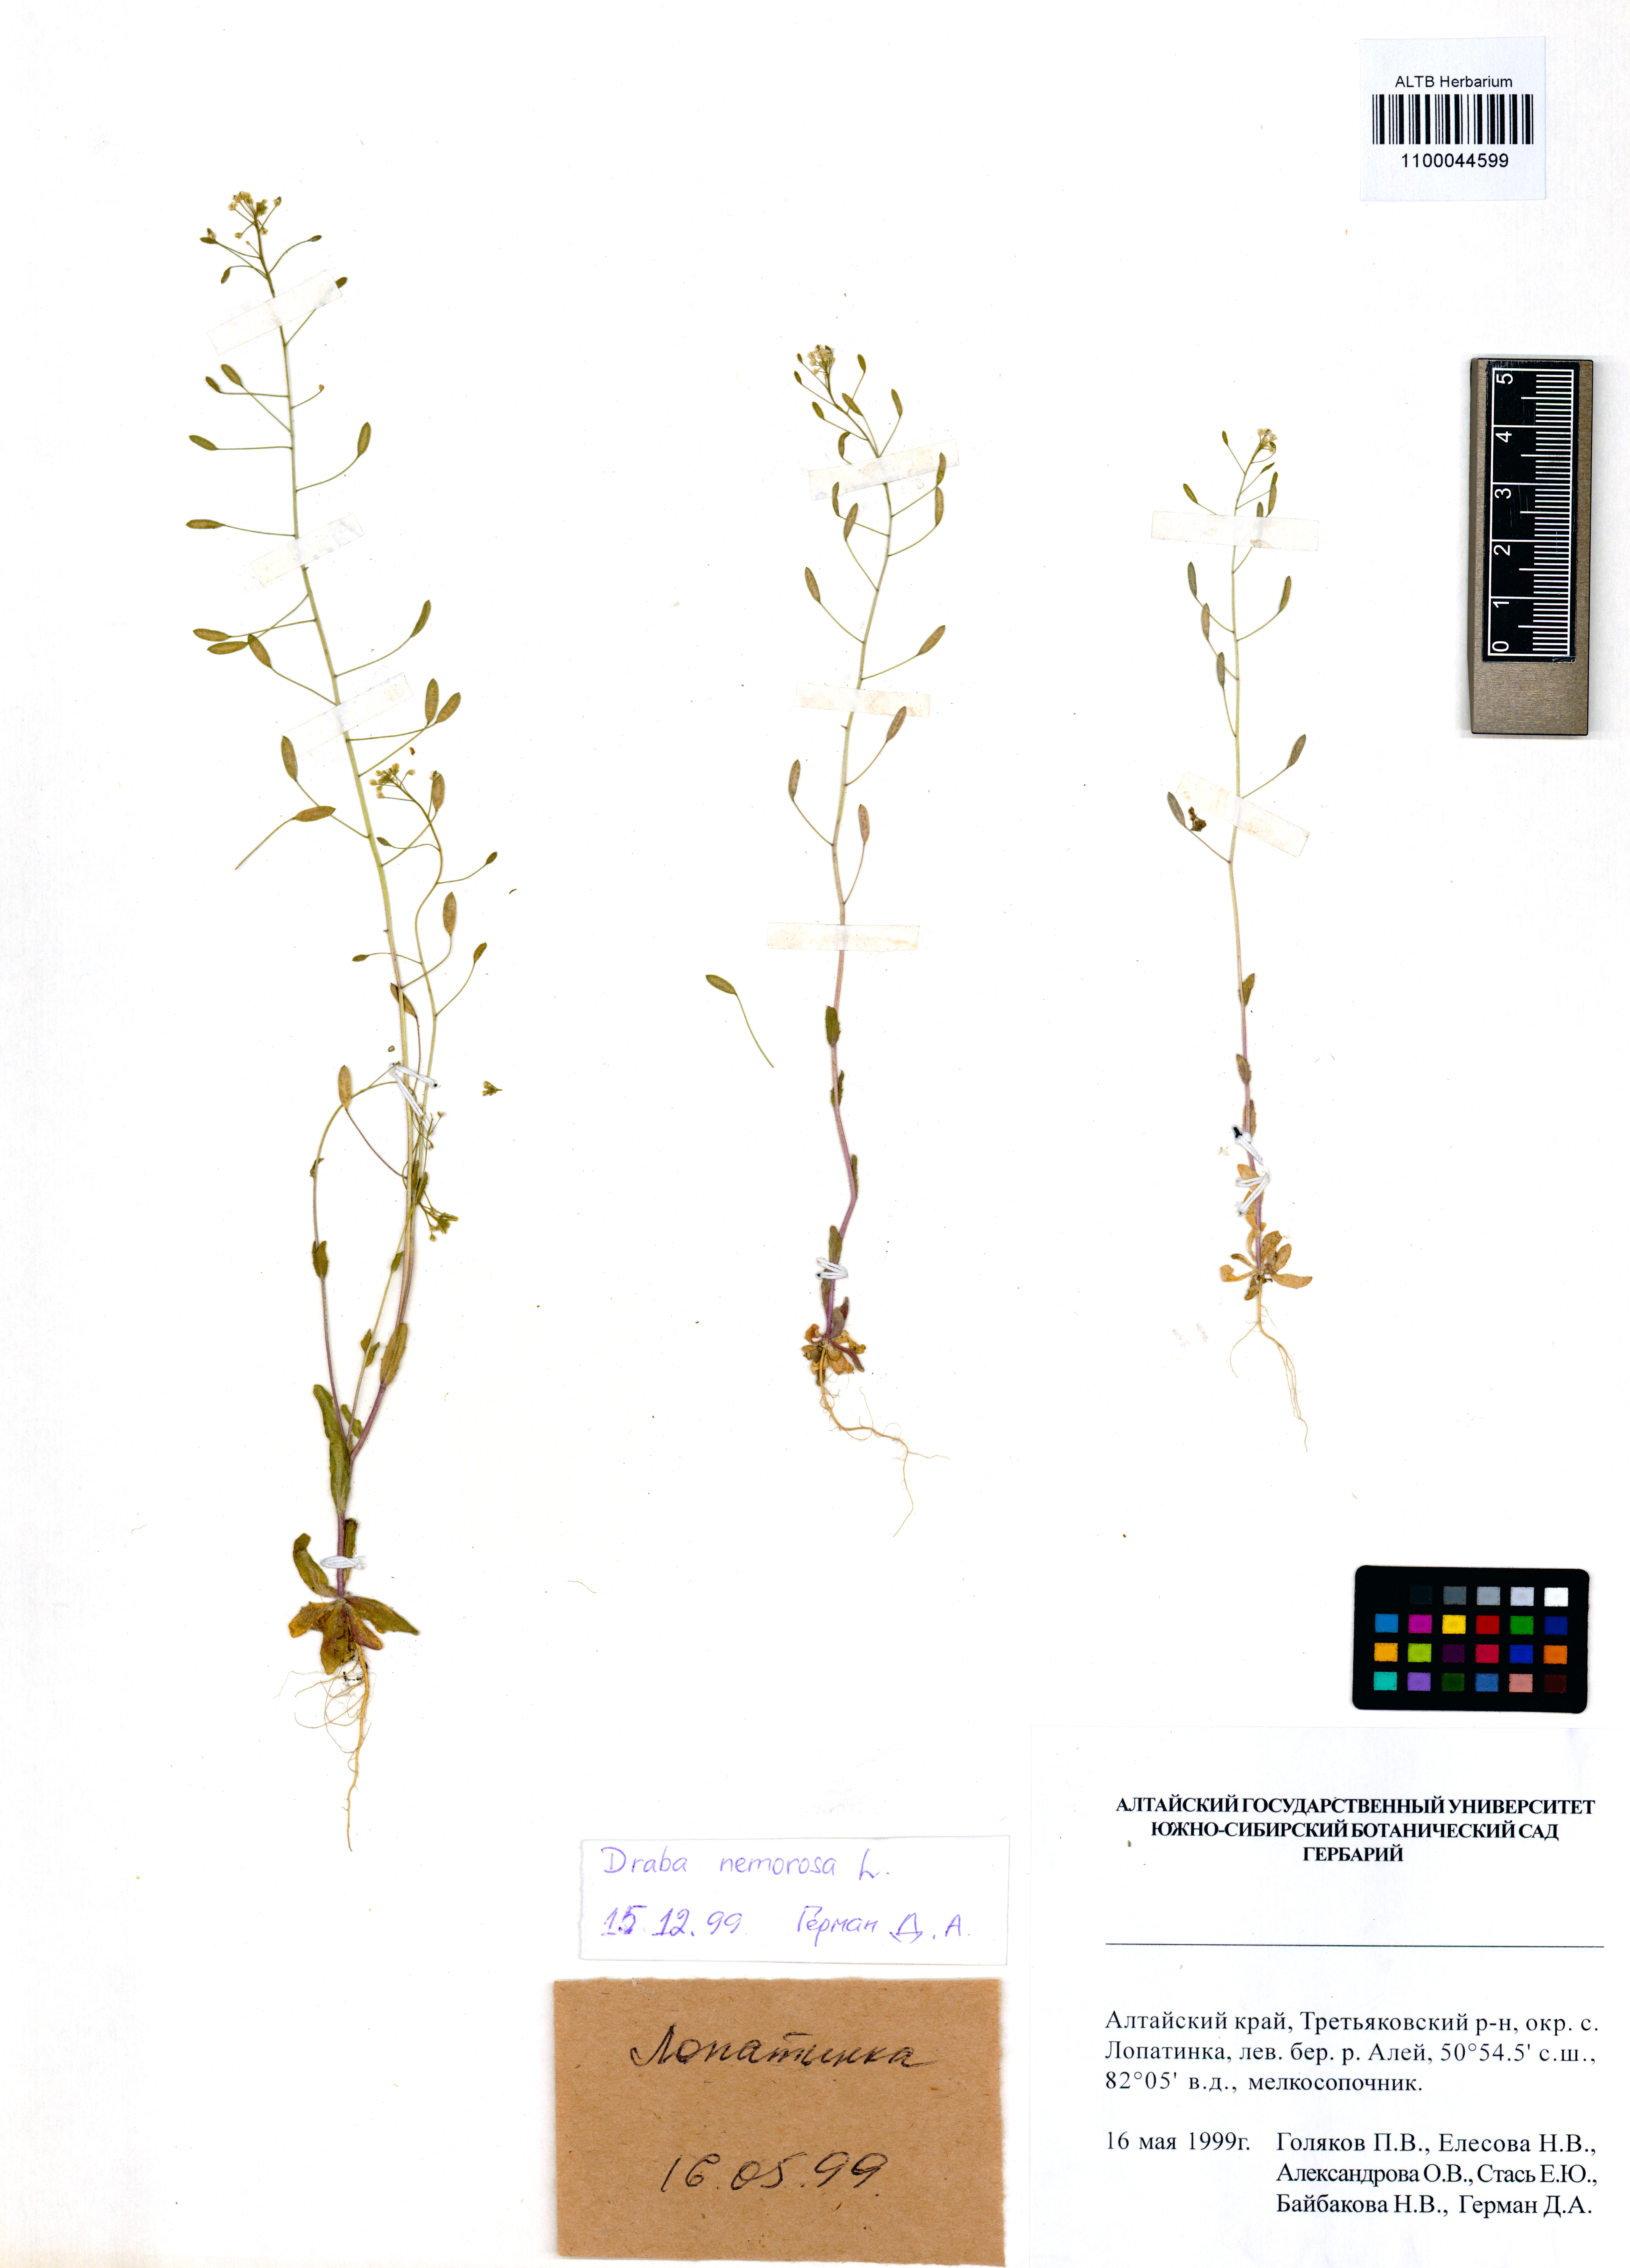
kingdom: Plantae
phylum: Tracheophyta
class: Magnoliopsida
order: Brassicales
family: Brassicaceae
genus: Draba
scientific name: Draba nemorosa
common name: Wood whitlow-grass
